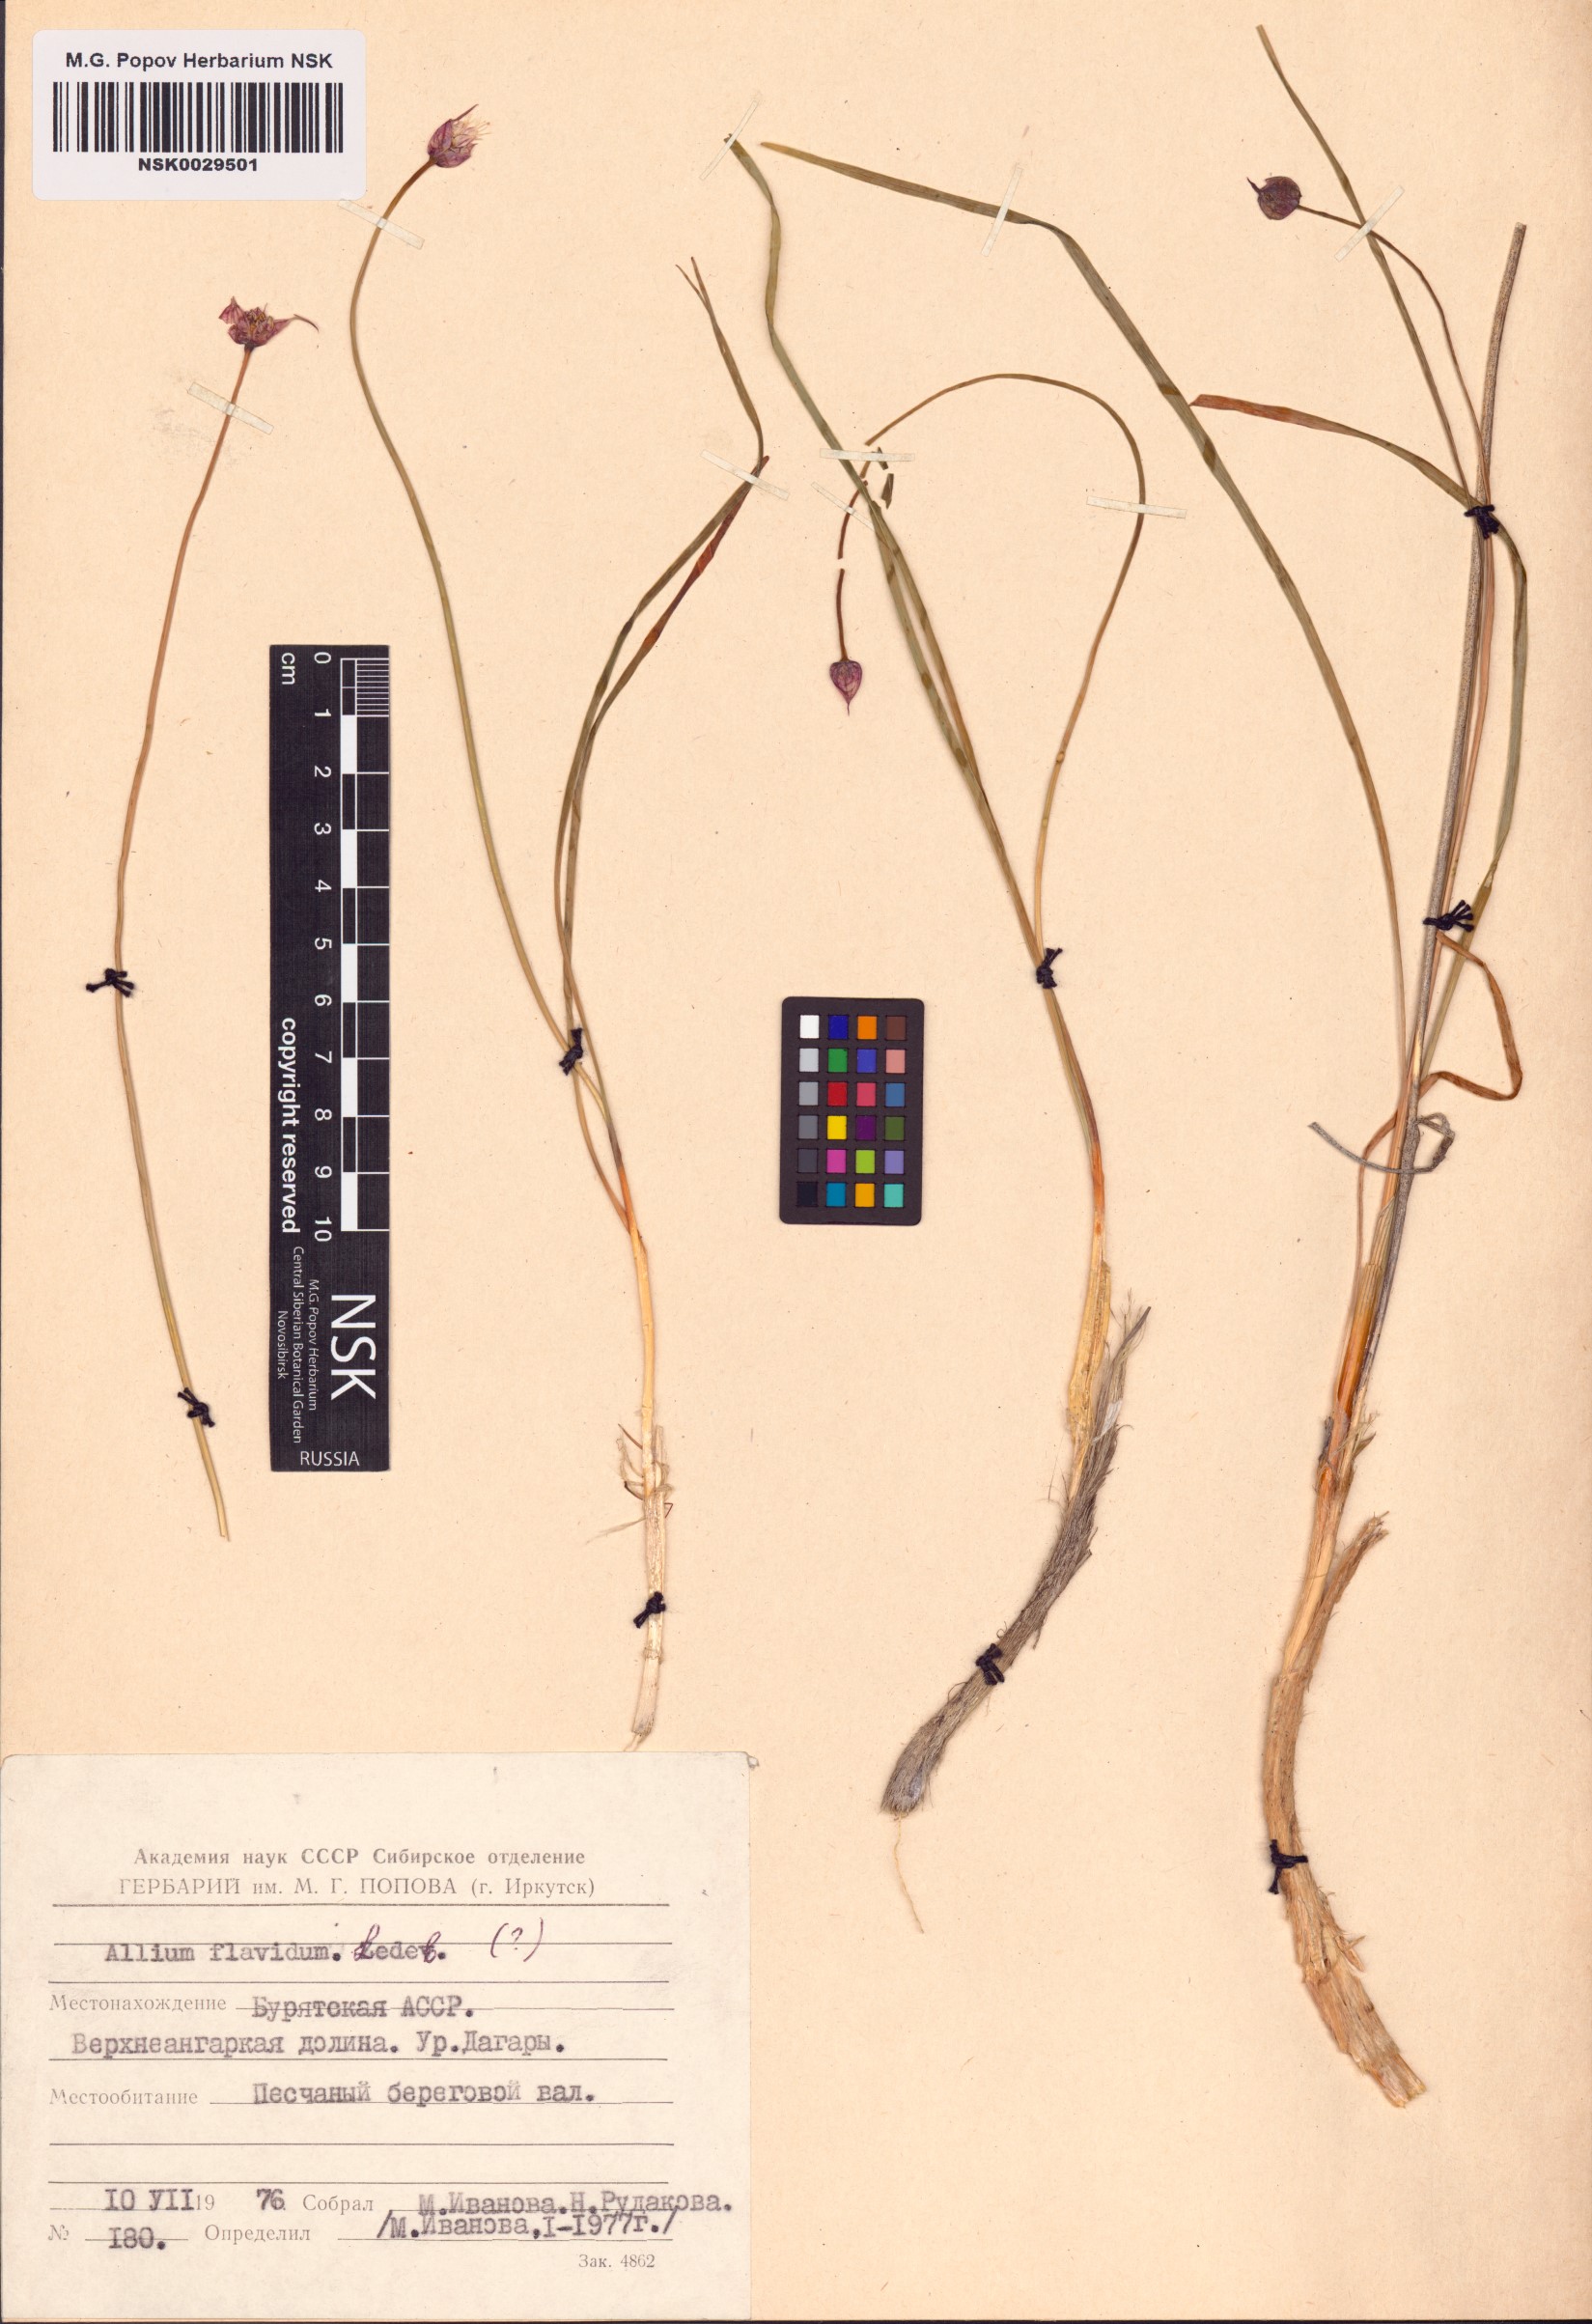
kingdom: Plantae
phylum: Tracheophyta
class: Liliopsida
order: Asparagales
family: Amaryllidaceae
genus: Allium
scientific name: Allium flavidum
